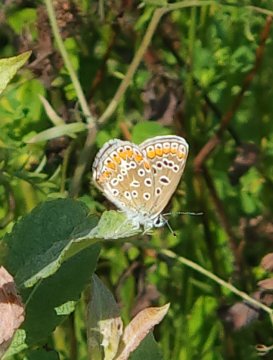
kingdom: Animalia
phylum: Arthropoda
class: Insecta
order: Lepidoptera
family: Lycaenidae
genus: Polyommatus
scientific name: Polyommatus icarus
